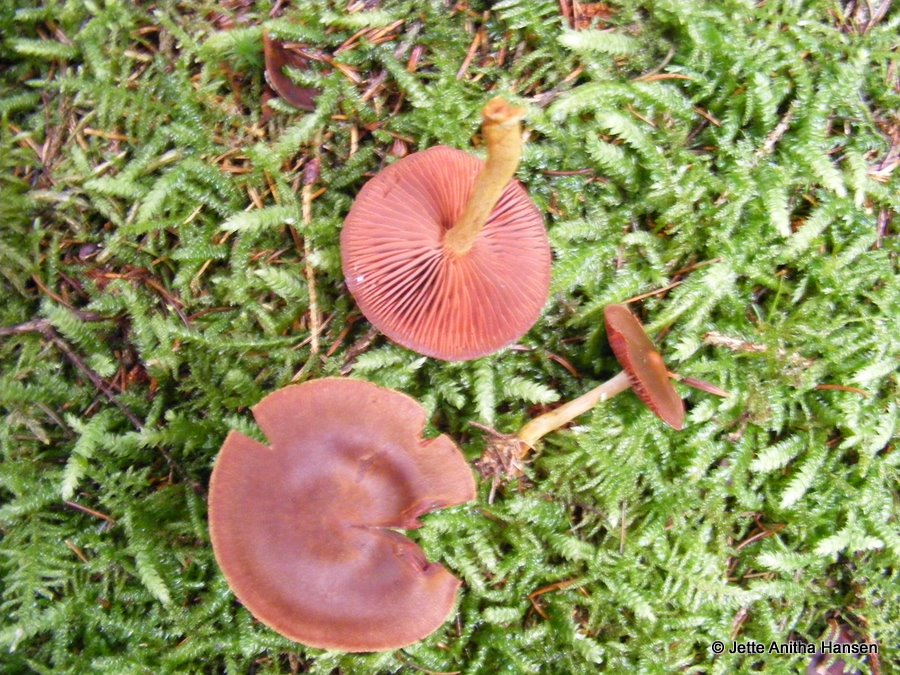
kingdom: Fungi
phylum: Basidiomycota
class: Agaricomycetes
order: Agaricales
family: Cortinariaceae
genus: Cortinarius
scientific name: Cortinarius
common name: cinnoberbladet slørhat
